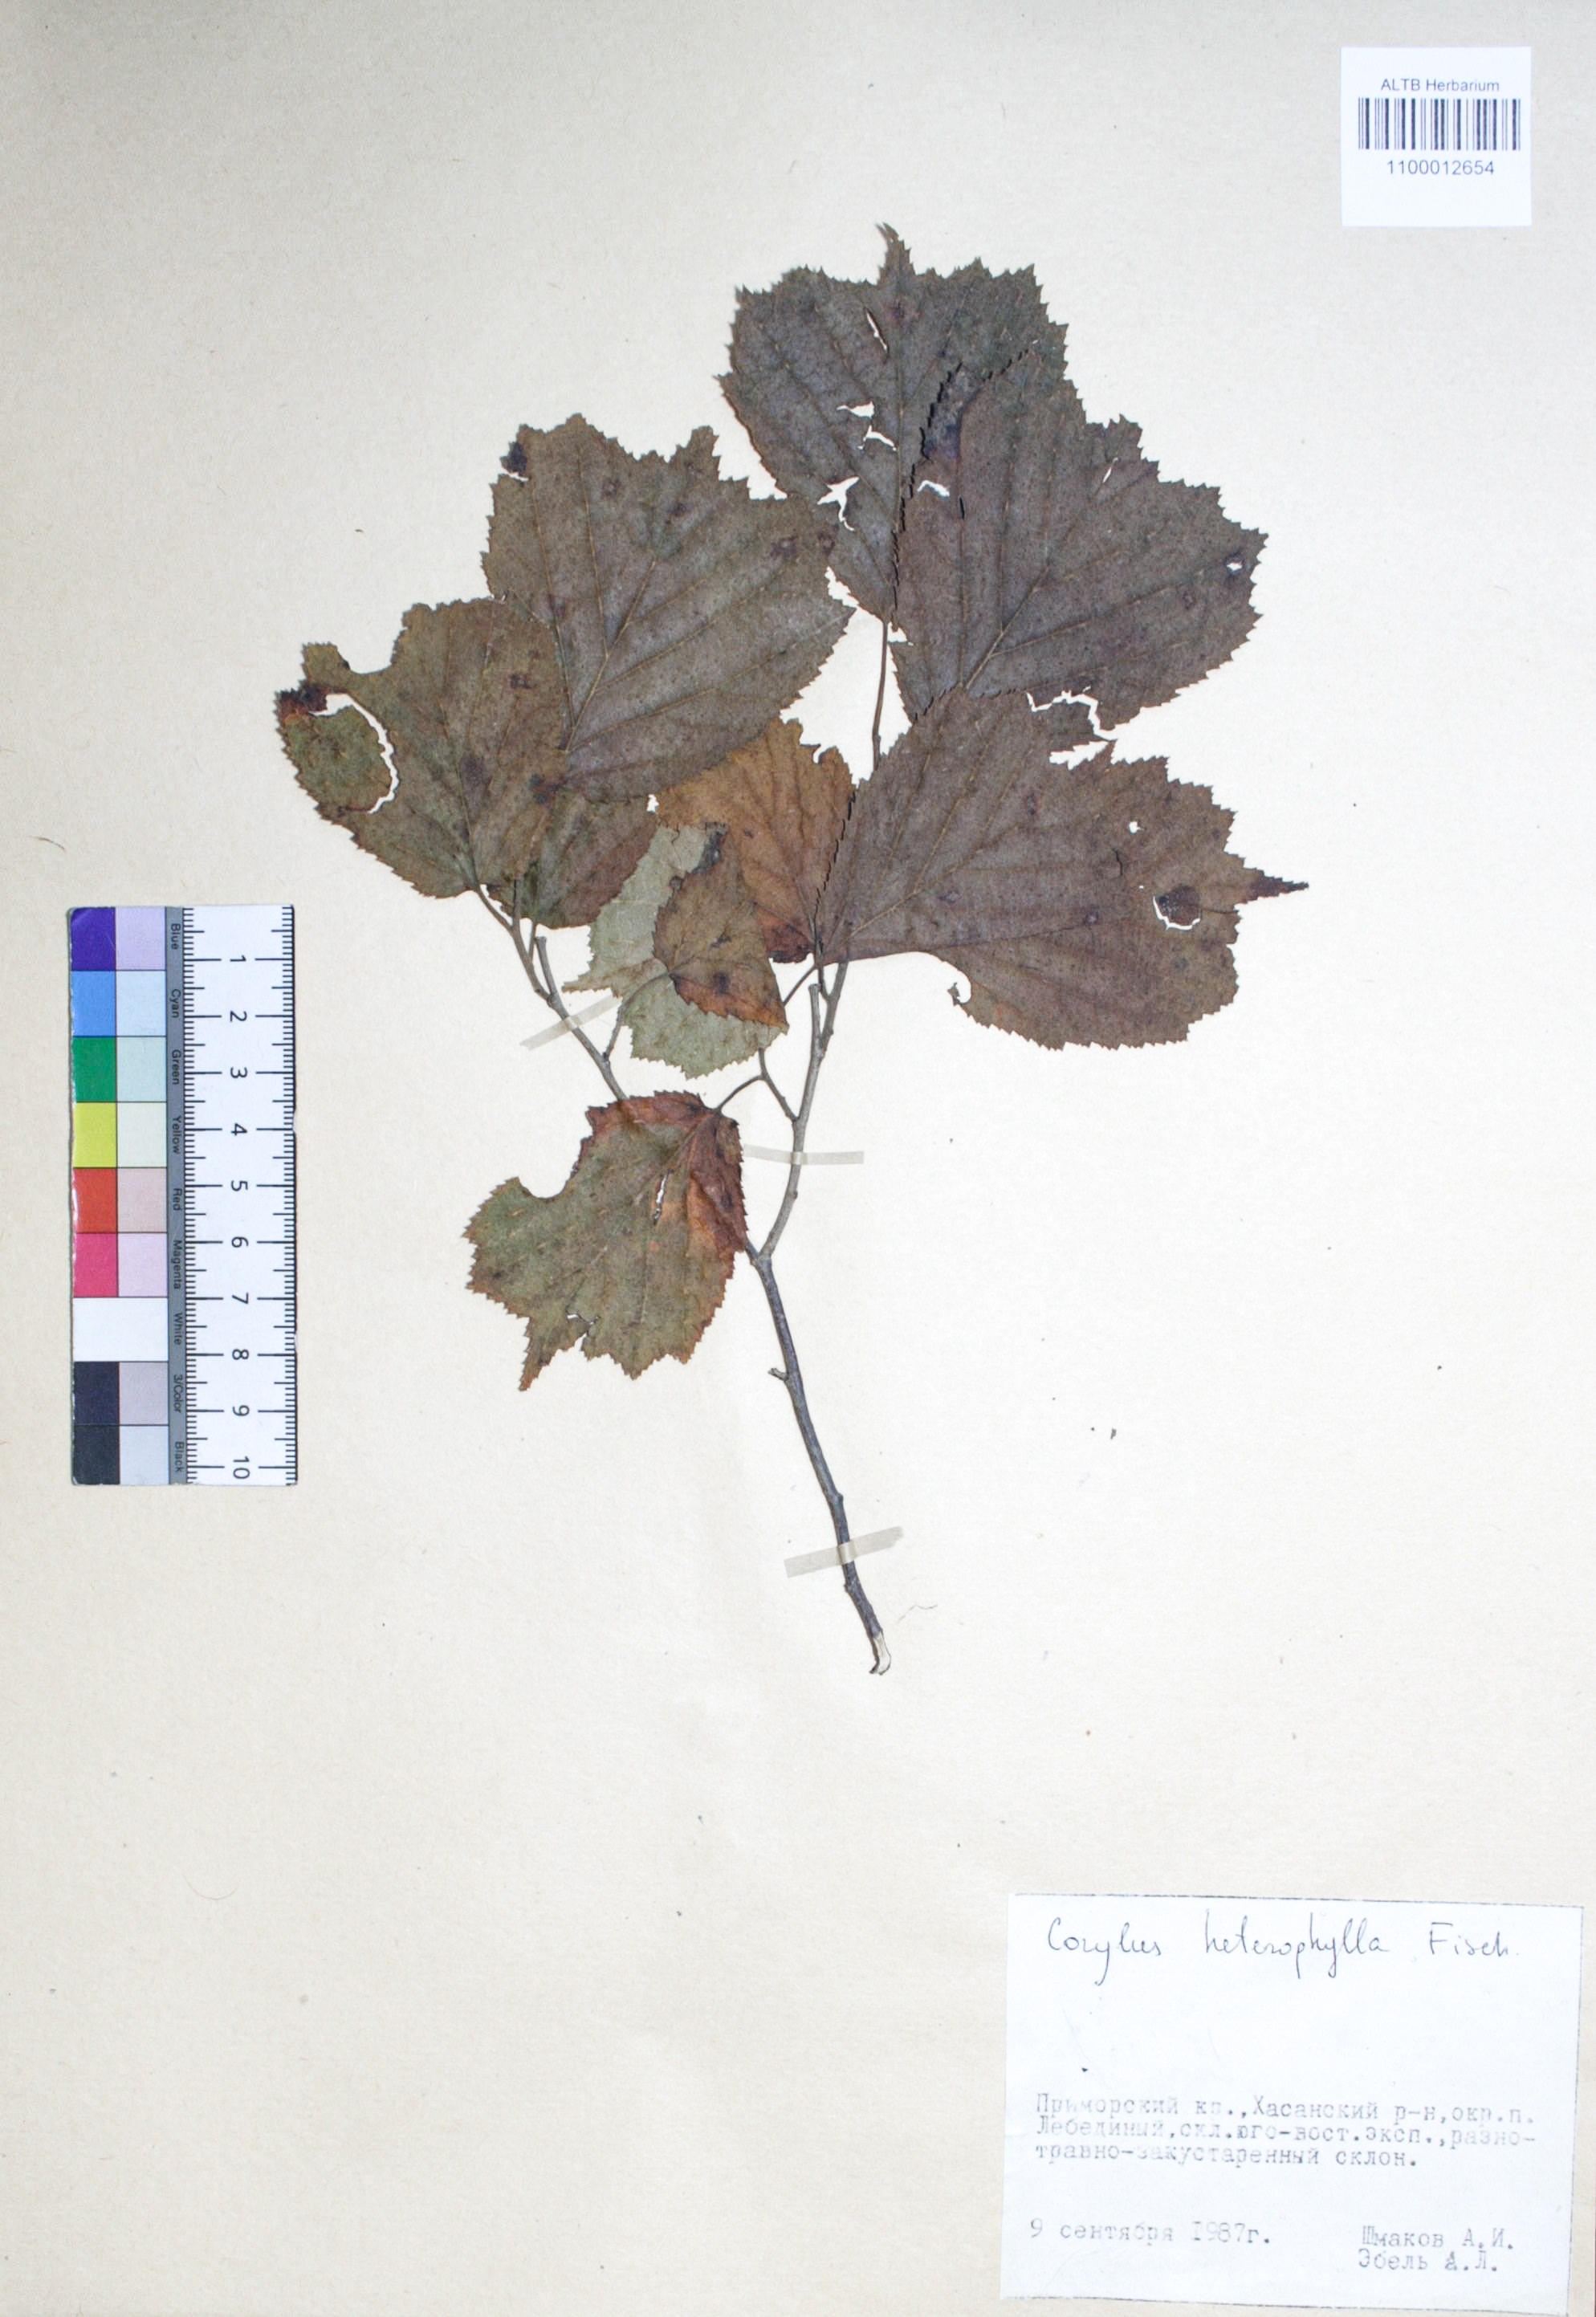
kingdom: Plantae
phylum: Tracheophyta
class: Magnoliopsida
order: Fagales
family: Betulaceae
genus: Corylus
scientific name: Corylus heterophylla
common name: Siberian hazelnut
